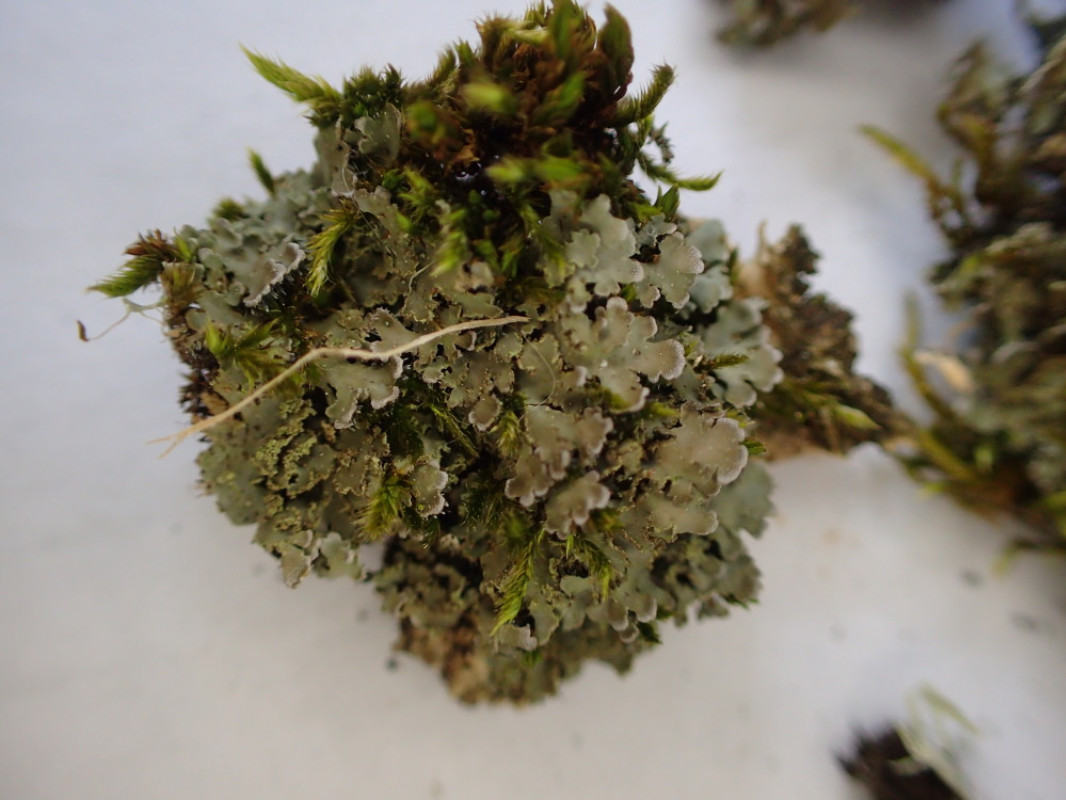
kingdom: Fungi
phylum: Ascomycota
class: Lecanoromycetes
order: Caliciales
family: Physciaceae
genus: Physconia
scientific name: Physconia perisidiosa
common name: liden dugrosetlav
